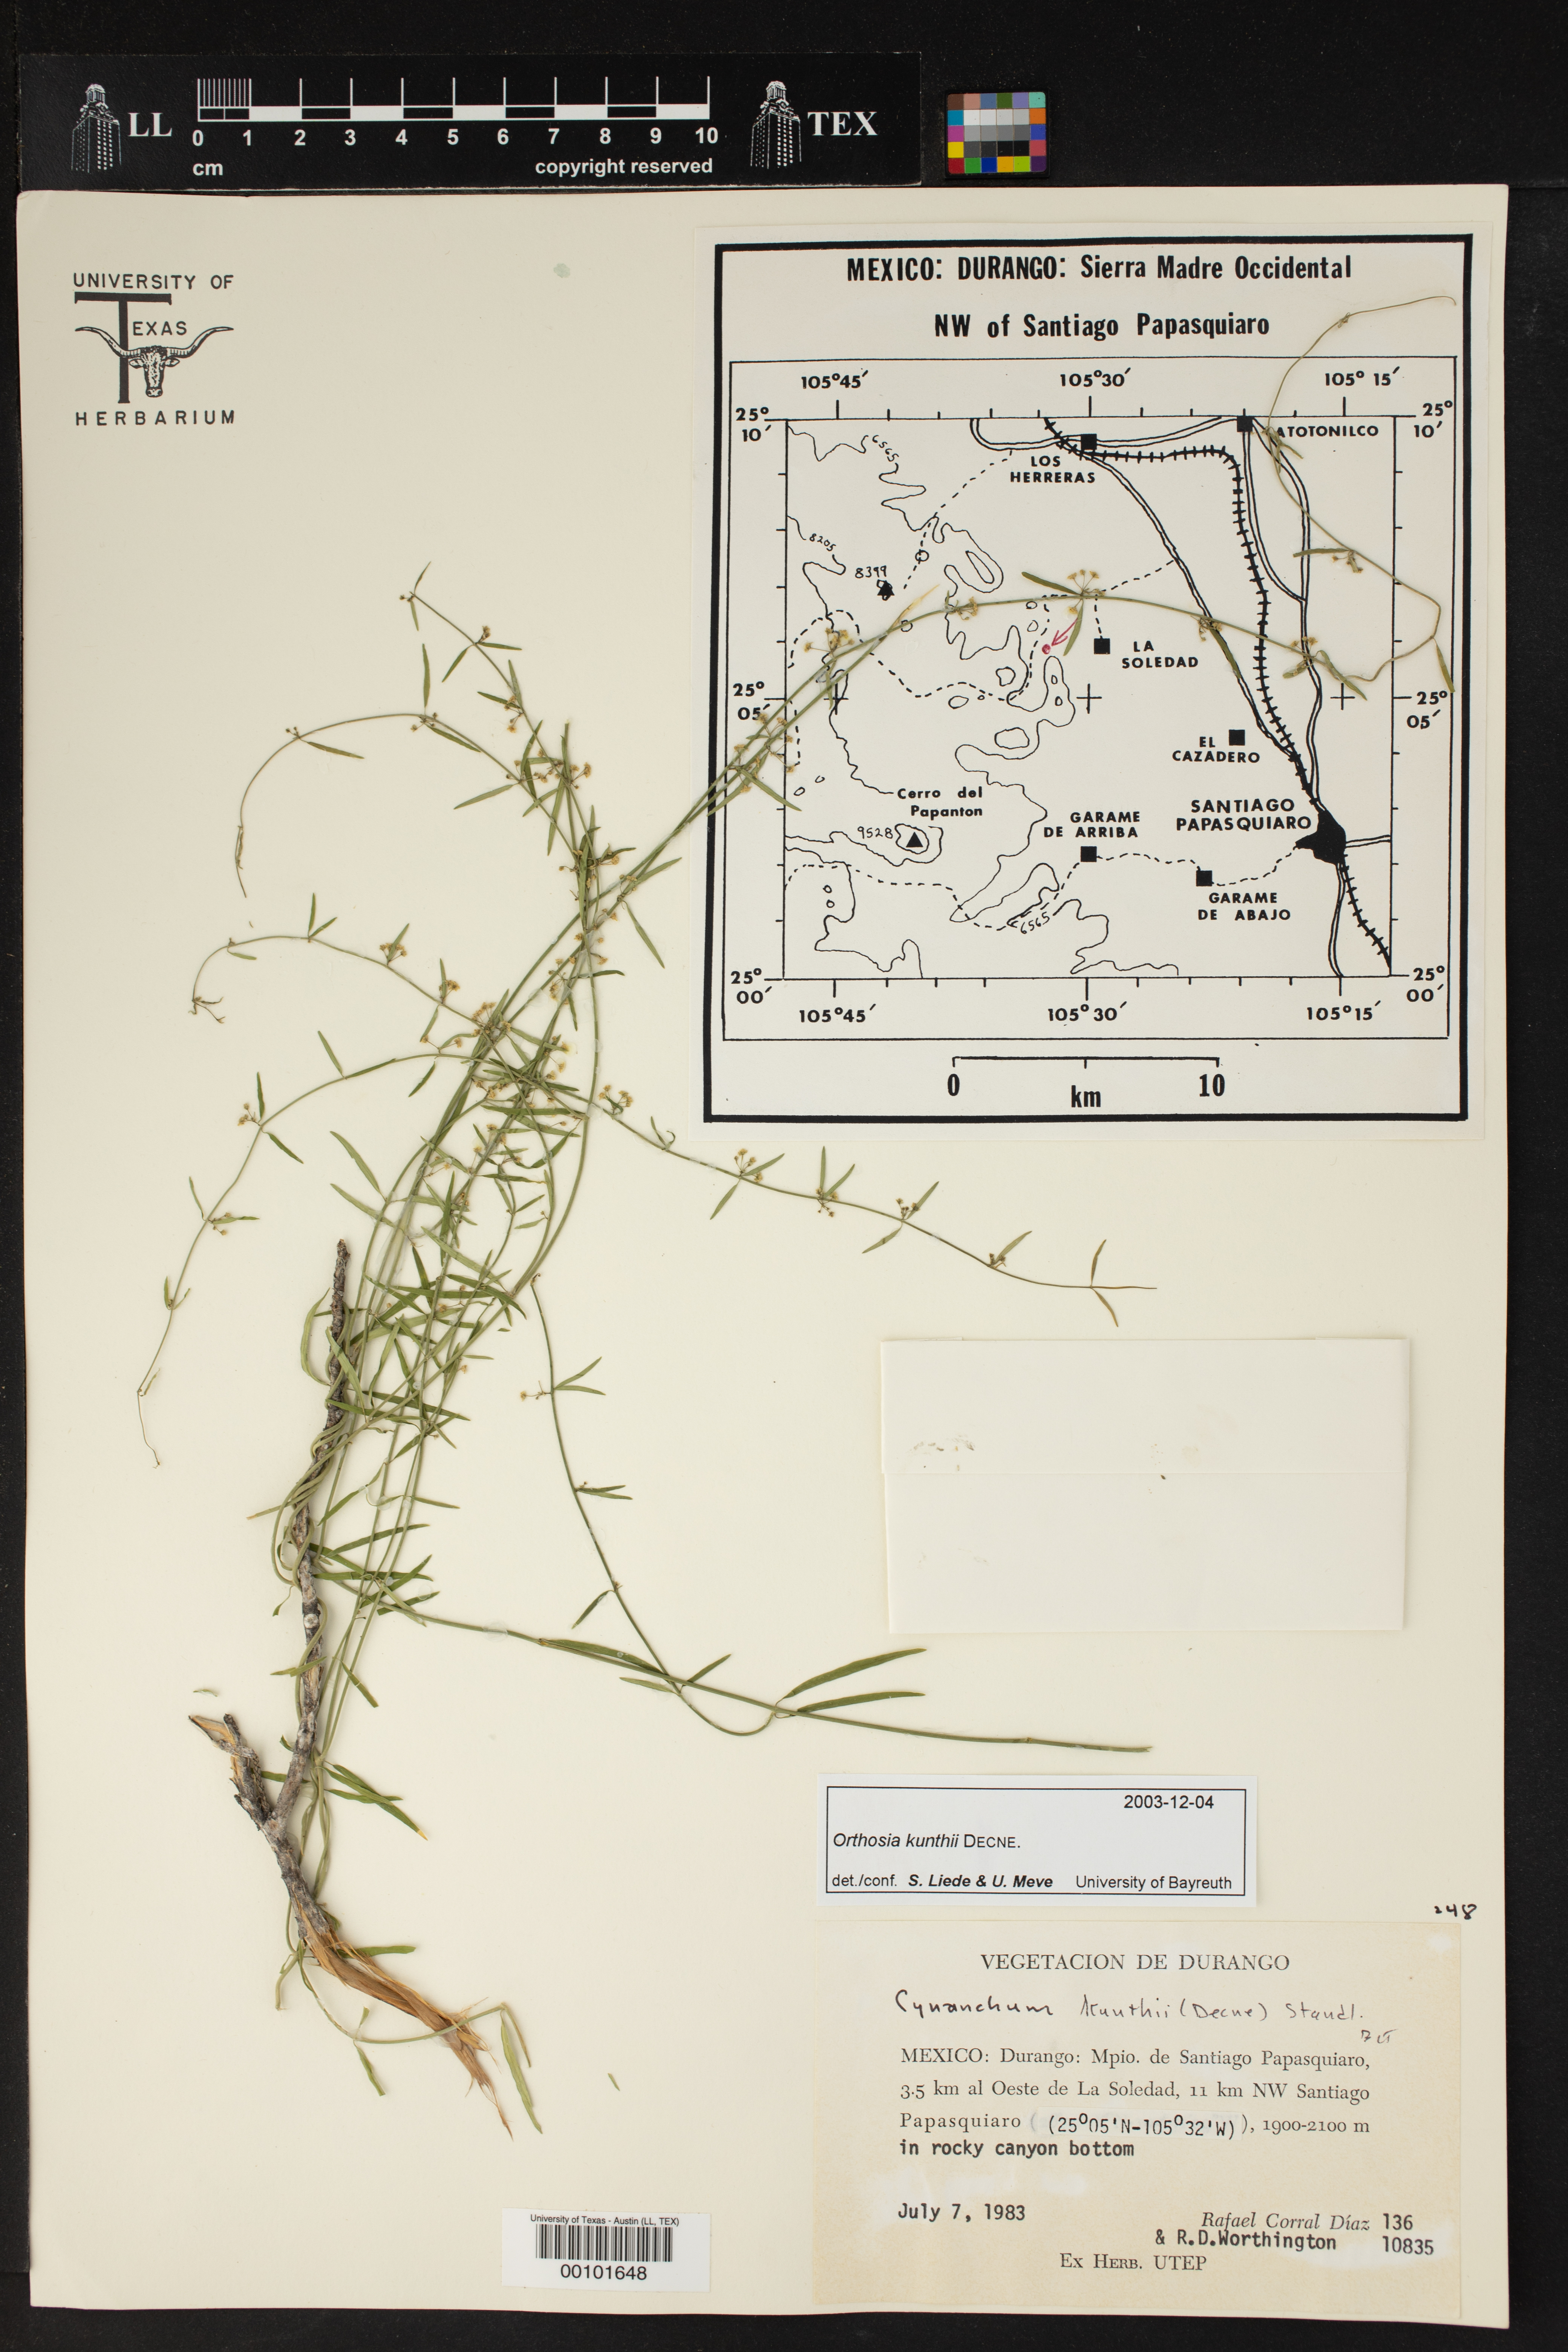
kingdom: Plantae
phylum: Tracheophyta
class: Magnoliopsida
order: Gentianales
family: Apocynaceae
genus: Orthosia
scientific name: Orthosia bonplandiana
